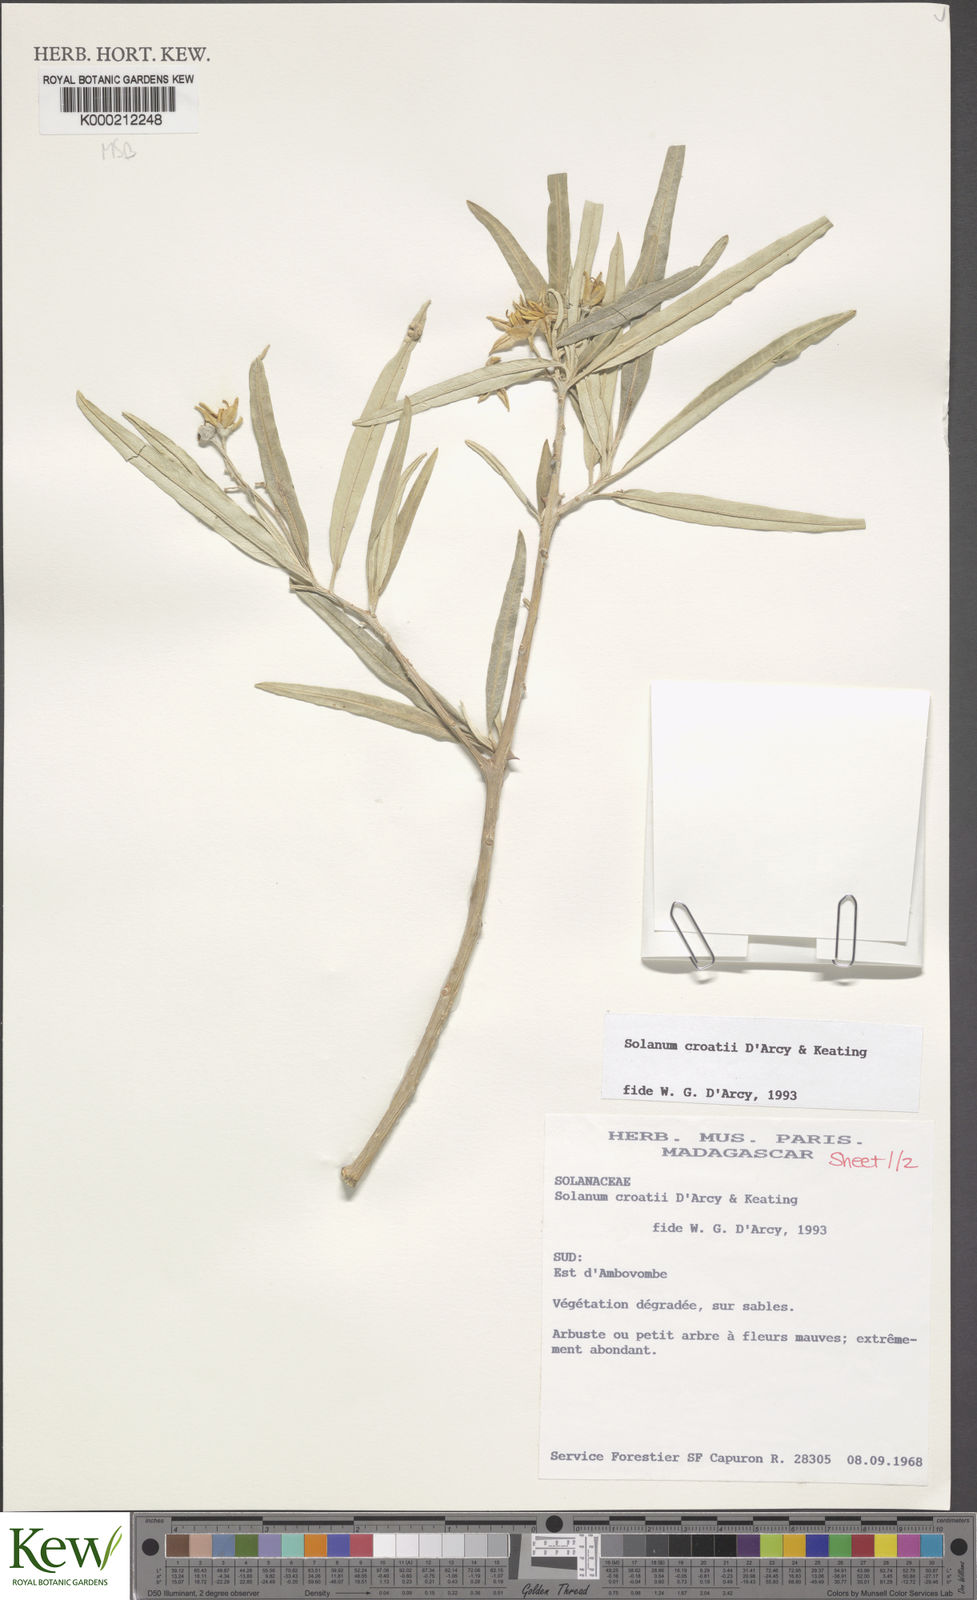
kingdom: Plantae
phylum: Tracheophyta
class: Magnoliopsida
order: Solanales
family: Solanaceae
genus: Solanum
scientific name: Solanum croatii
